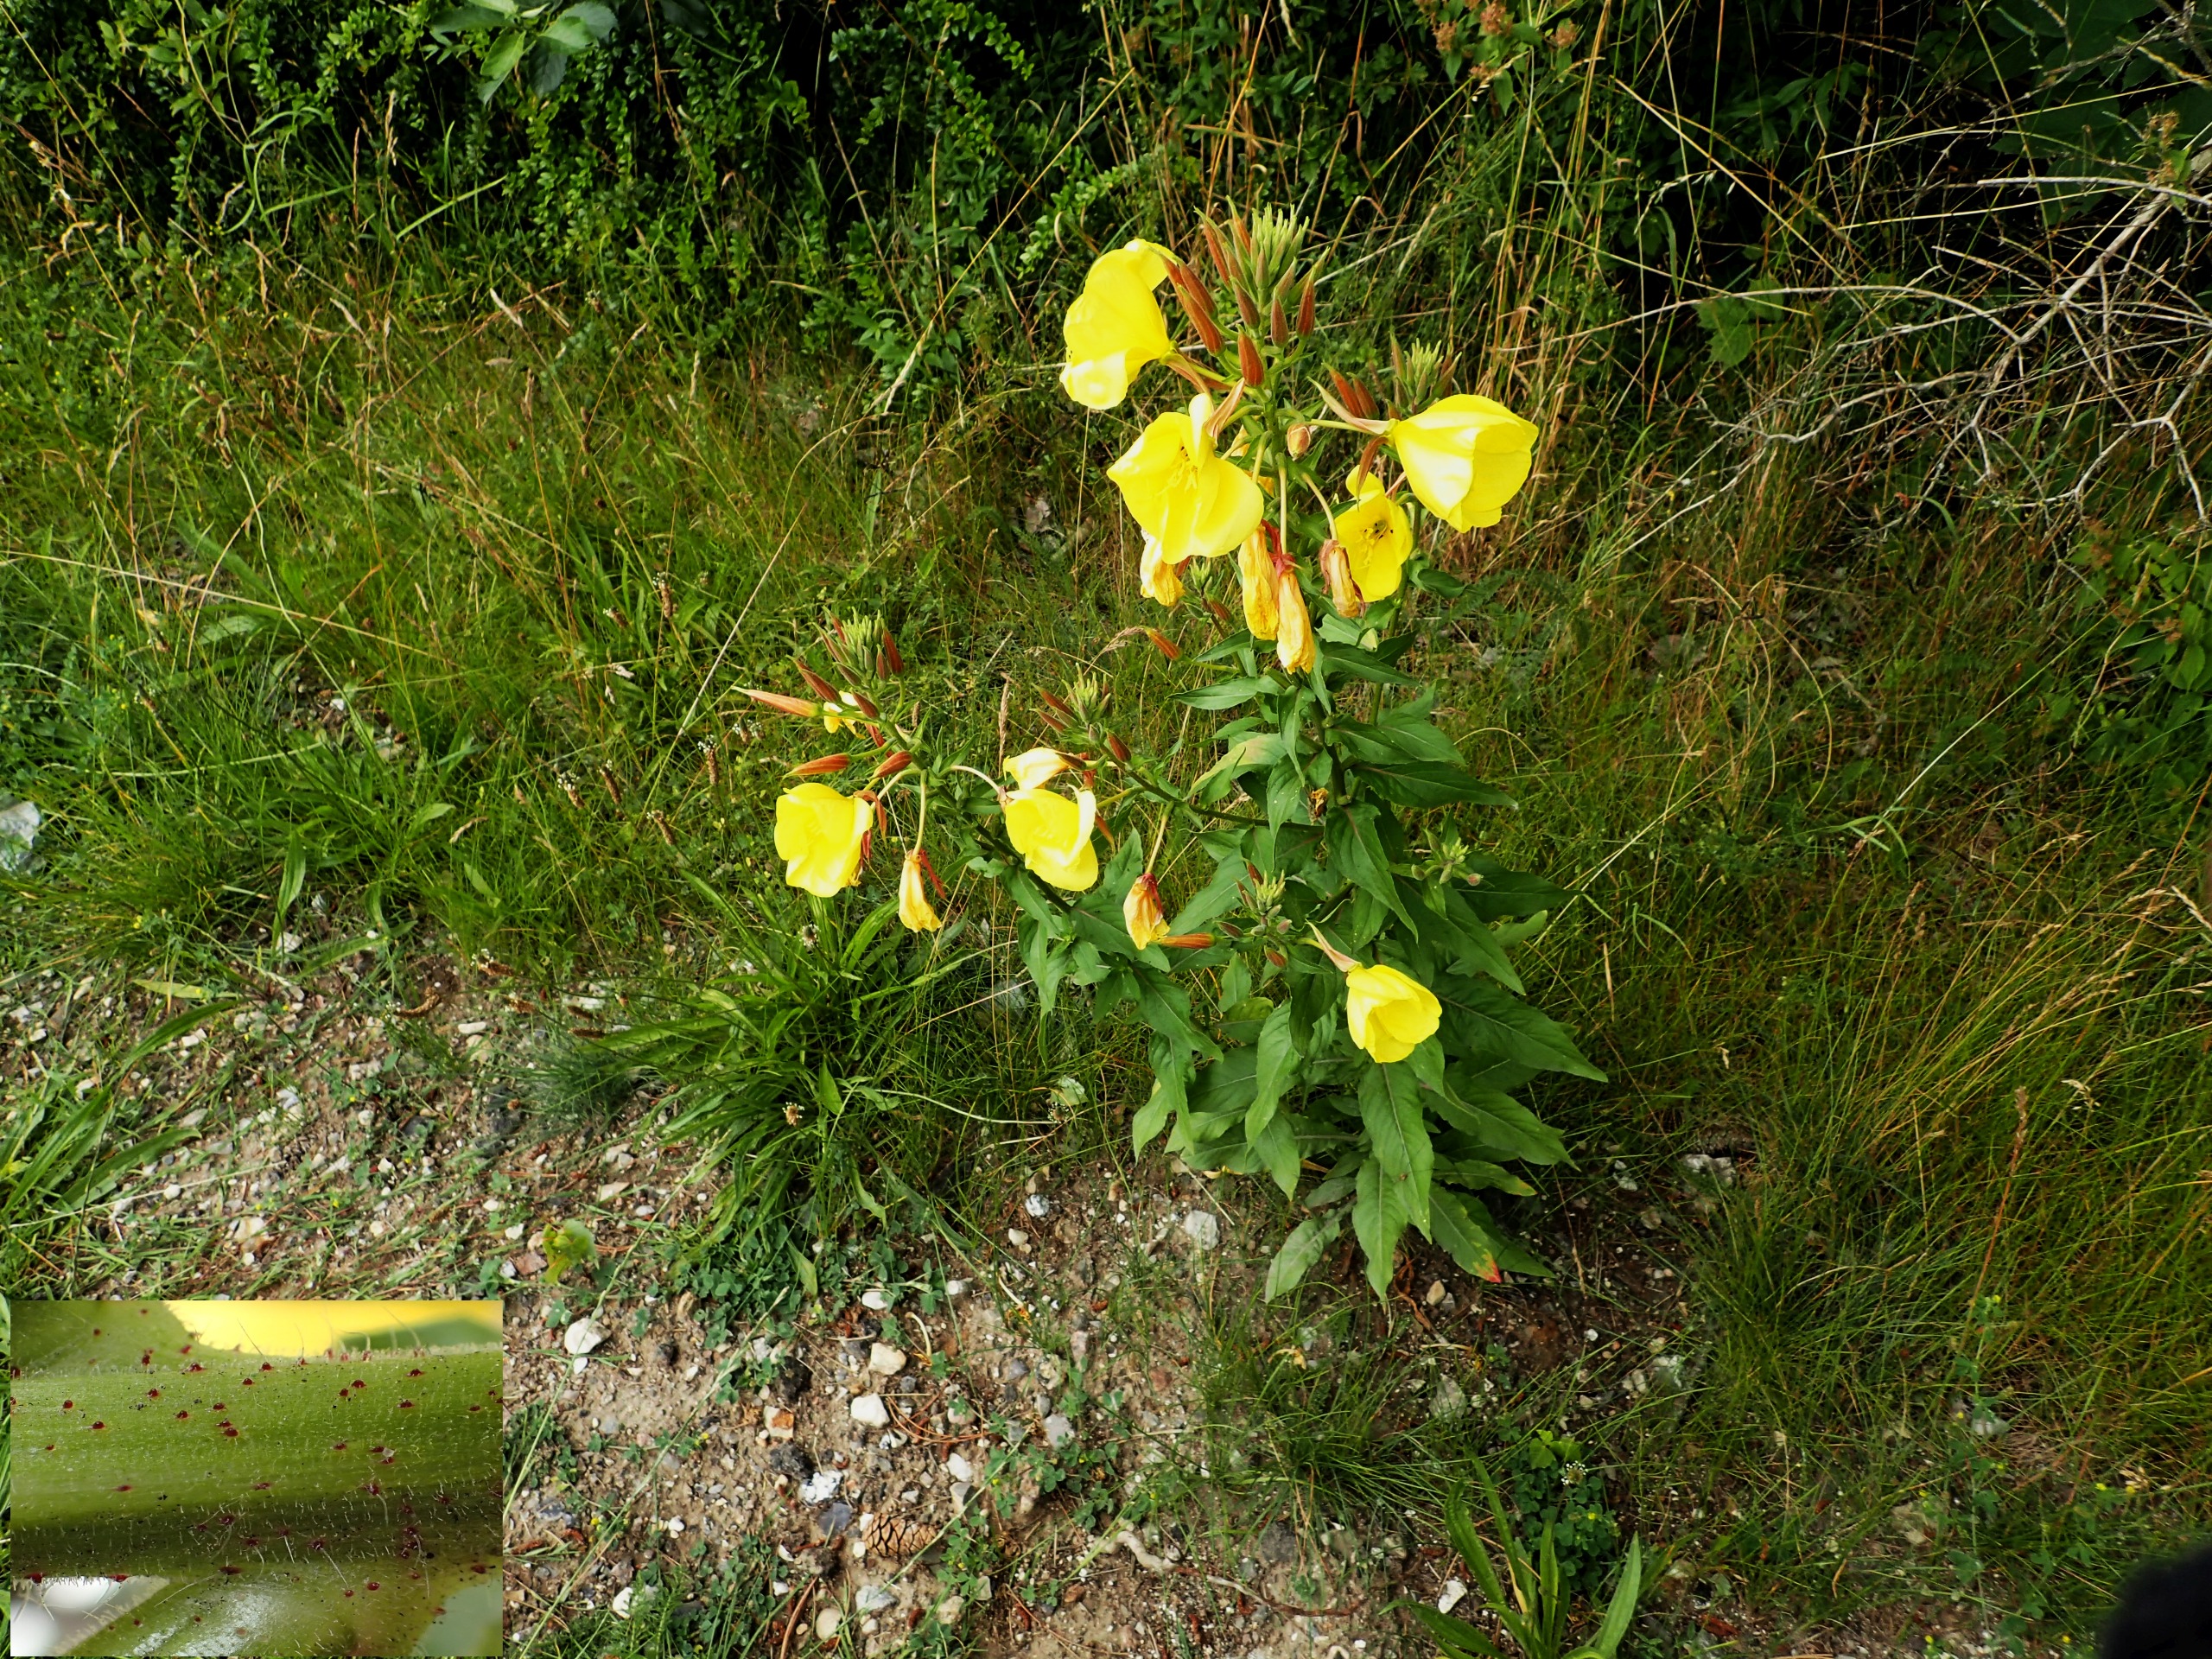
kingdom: Plantae
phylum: Tracheophyta
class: Magnoliopsida
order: Myrtales
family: Onagraceae
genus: Oenothera
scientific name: Oenothera glazioviana
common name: Kæmpe-natlys
